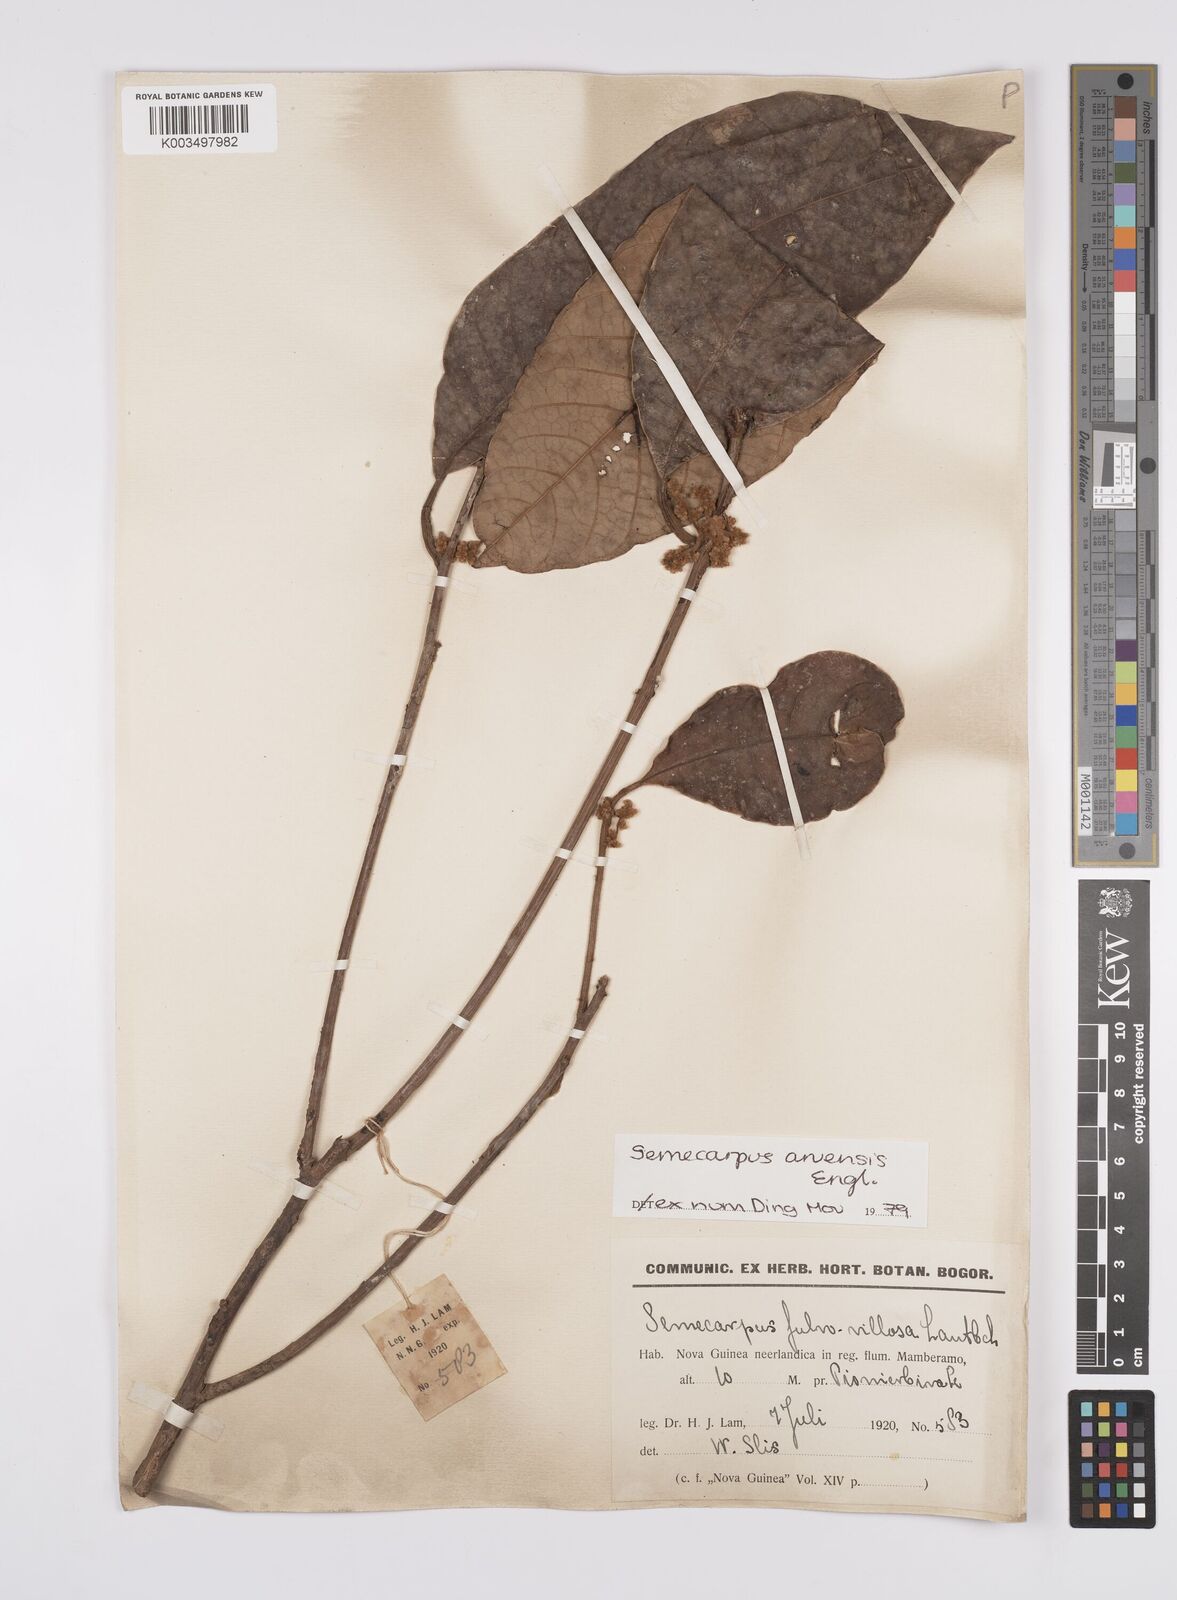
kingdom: Plantae
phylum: Tracheophyta
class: Magnoliopsida
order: Sapindales
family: Anacardiaceae
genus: Semecarpus
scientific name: Semecarpus aruensis
